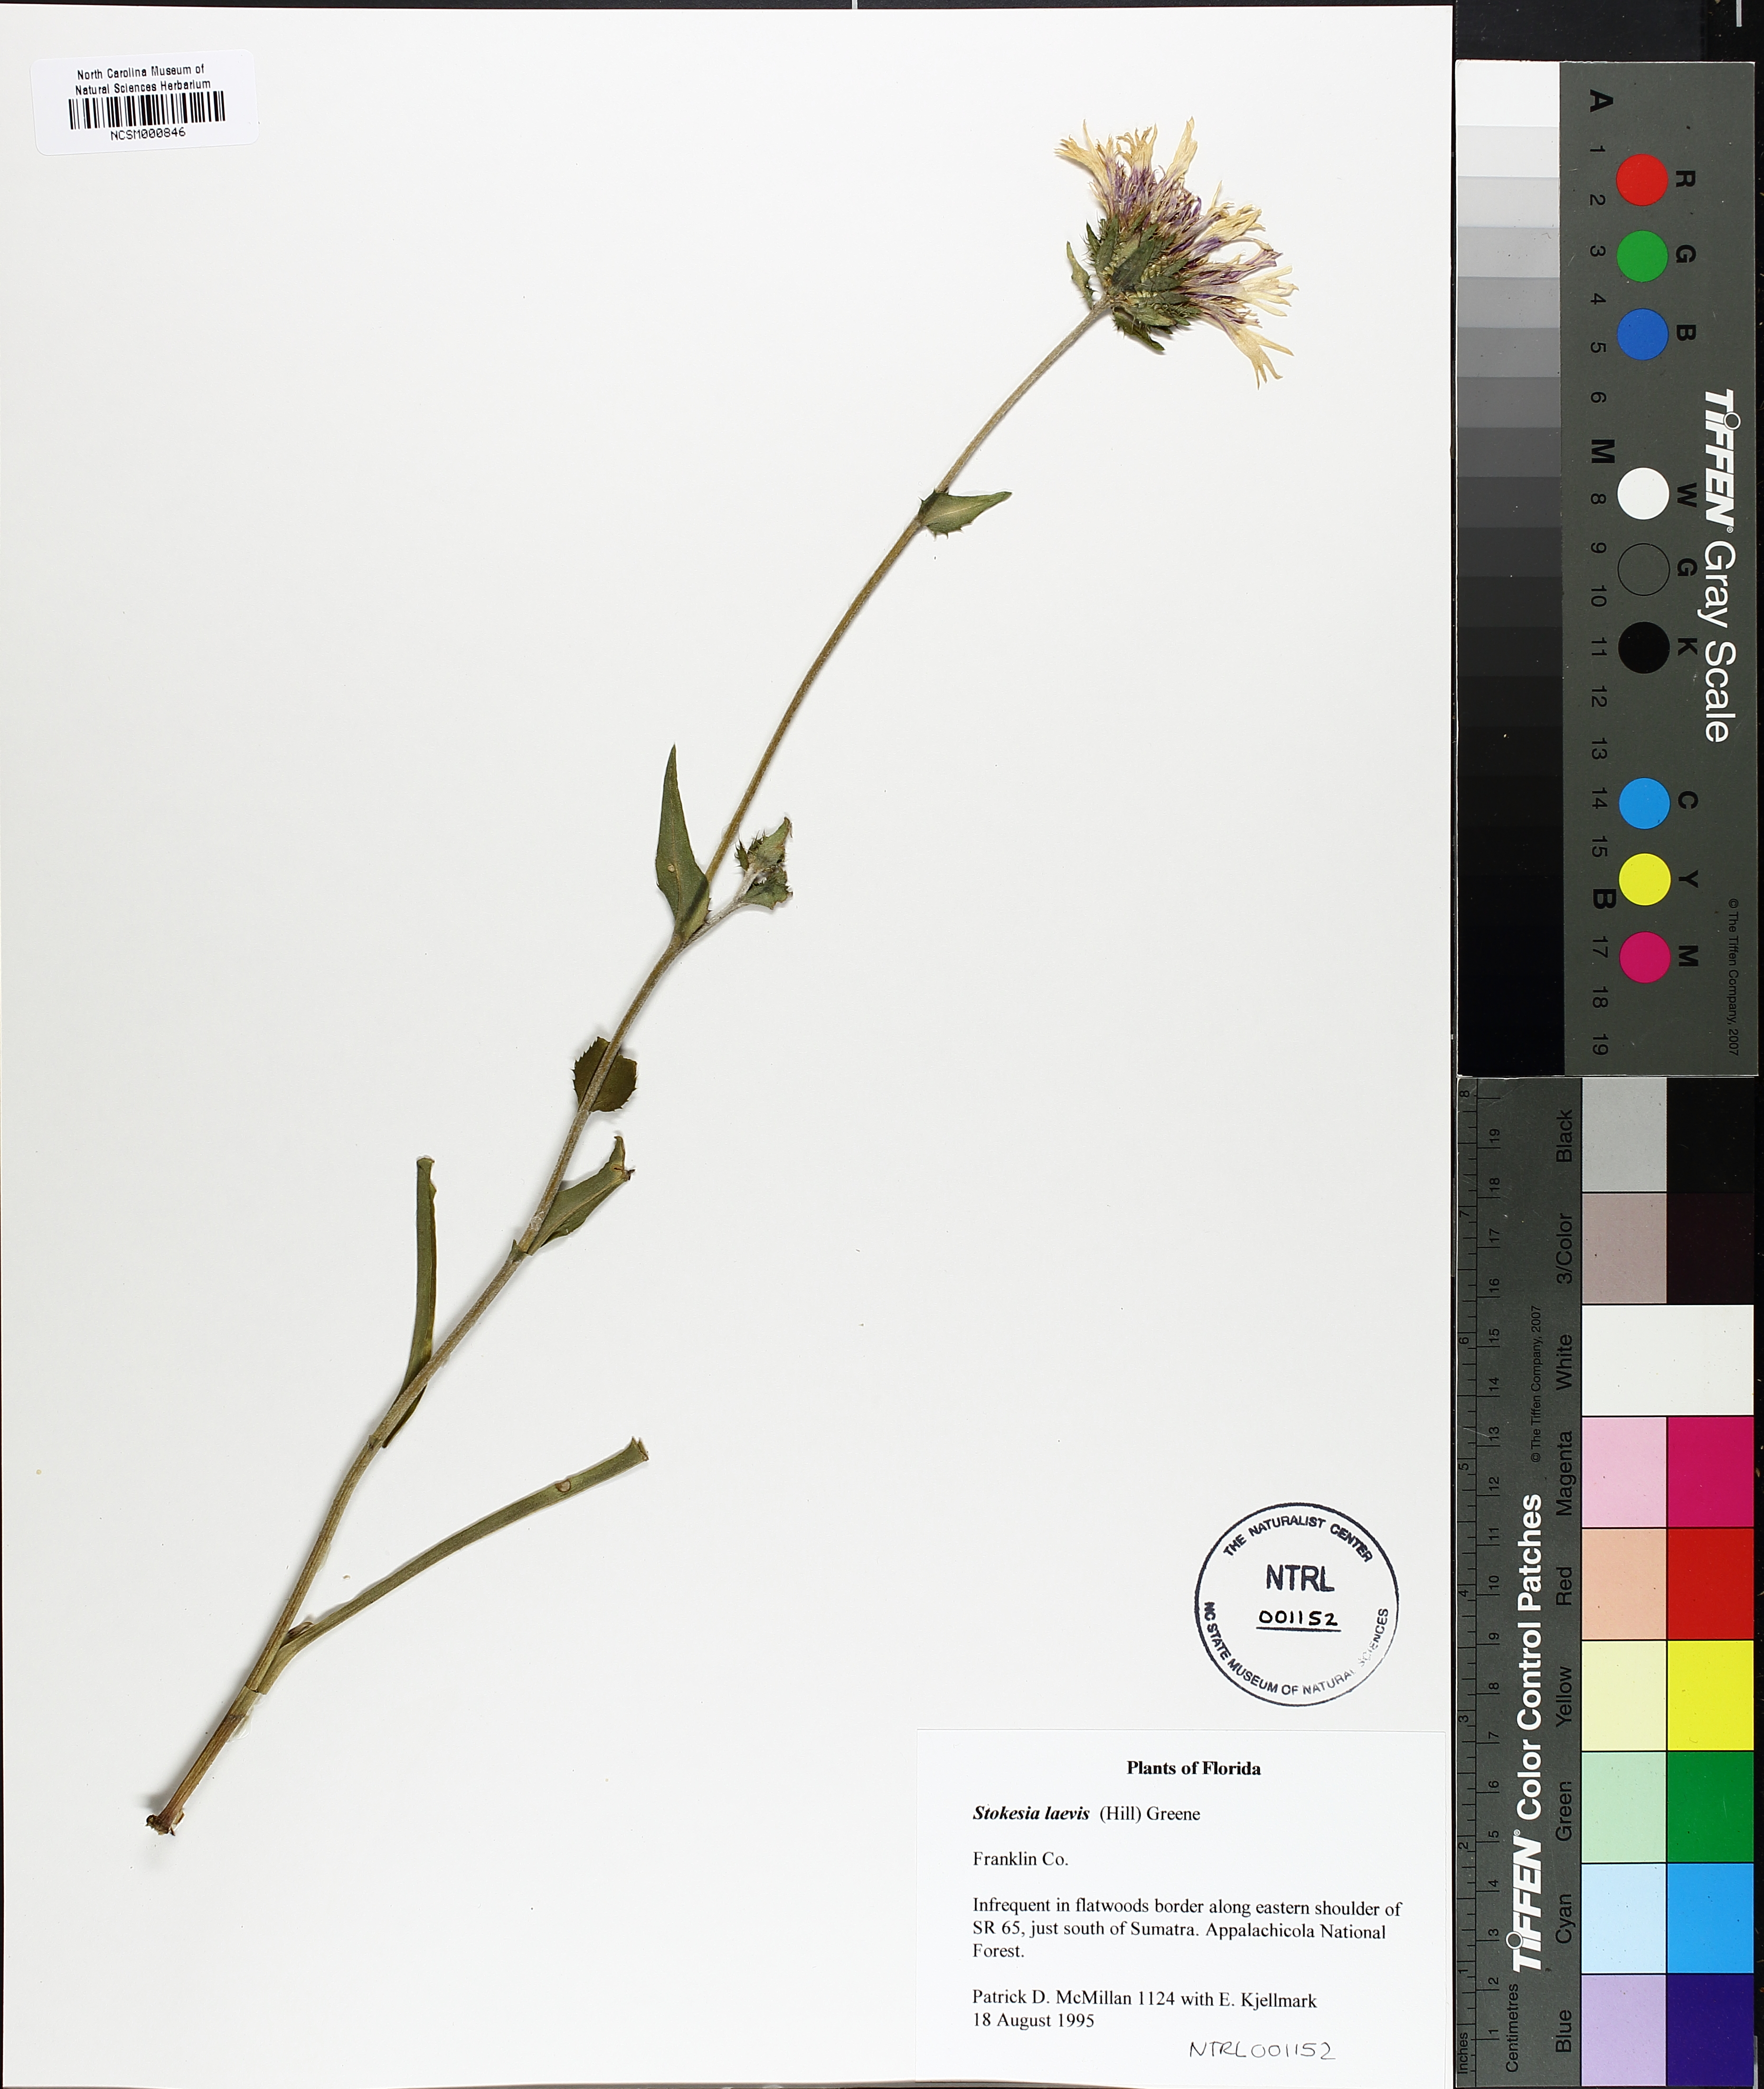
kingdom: Plantae
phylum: Tracheophyta
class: Magnoliopsida
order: Asterales
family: Asteraceae
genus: Stokesia
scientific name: Stokesia laevis
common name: Stokes'-aster
